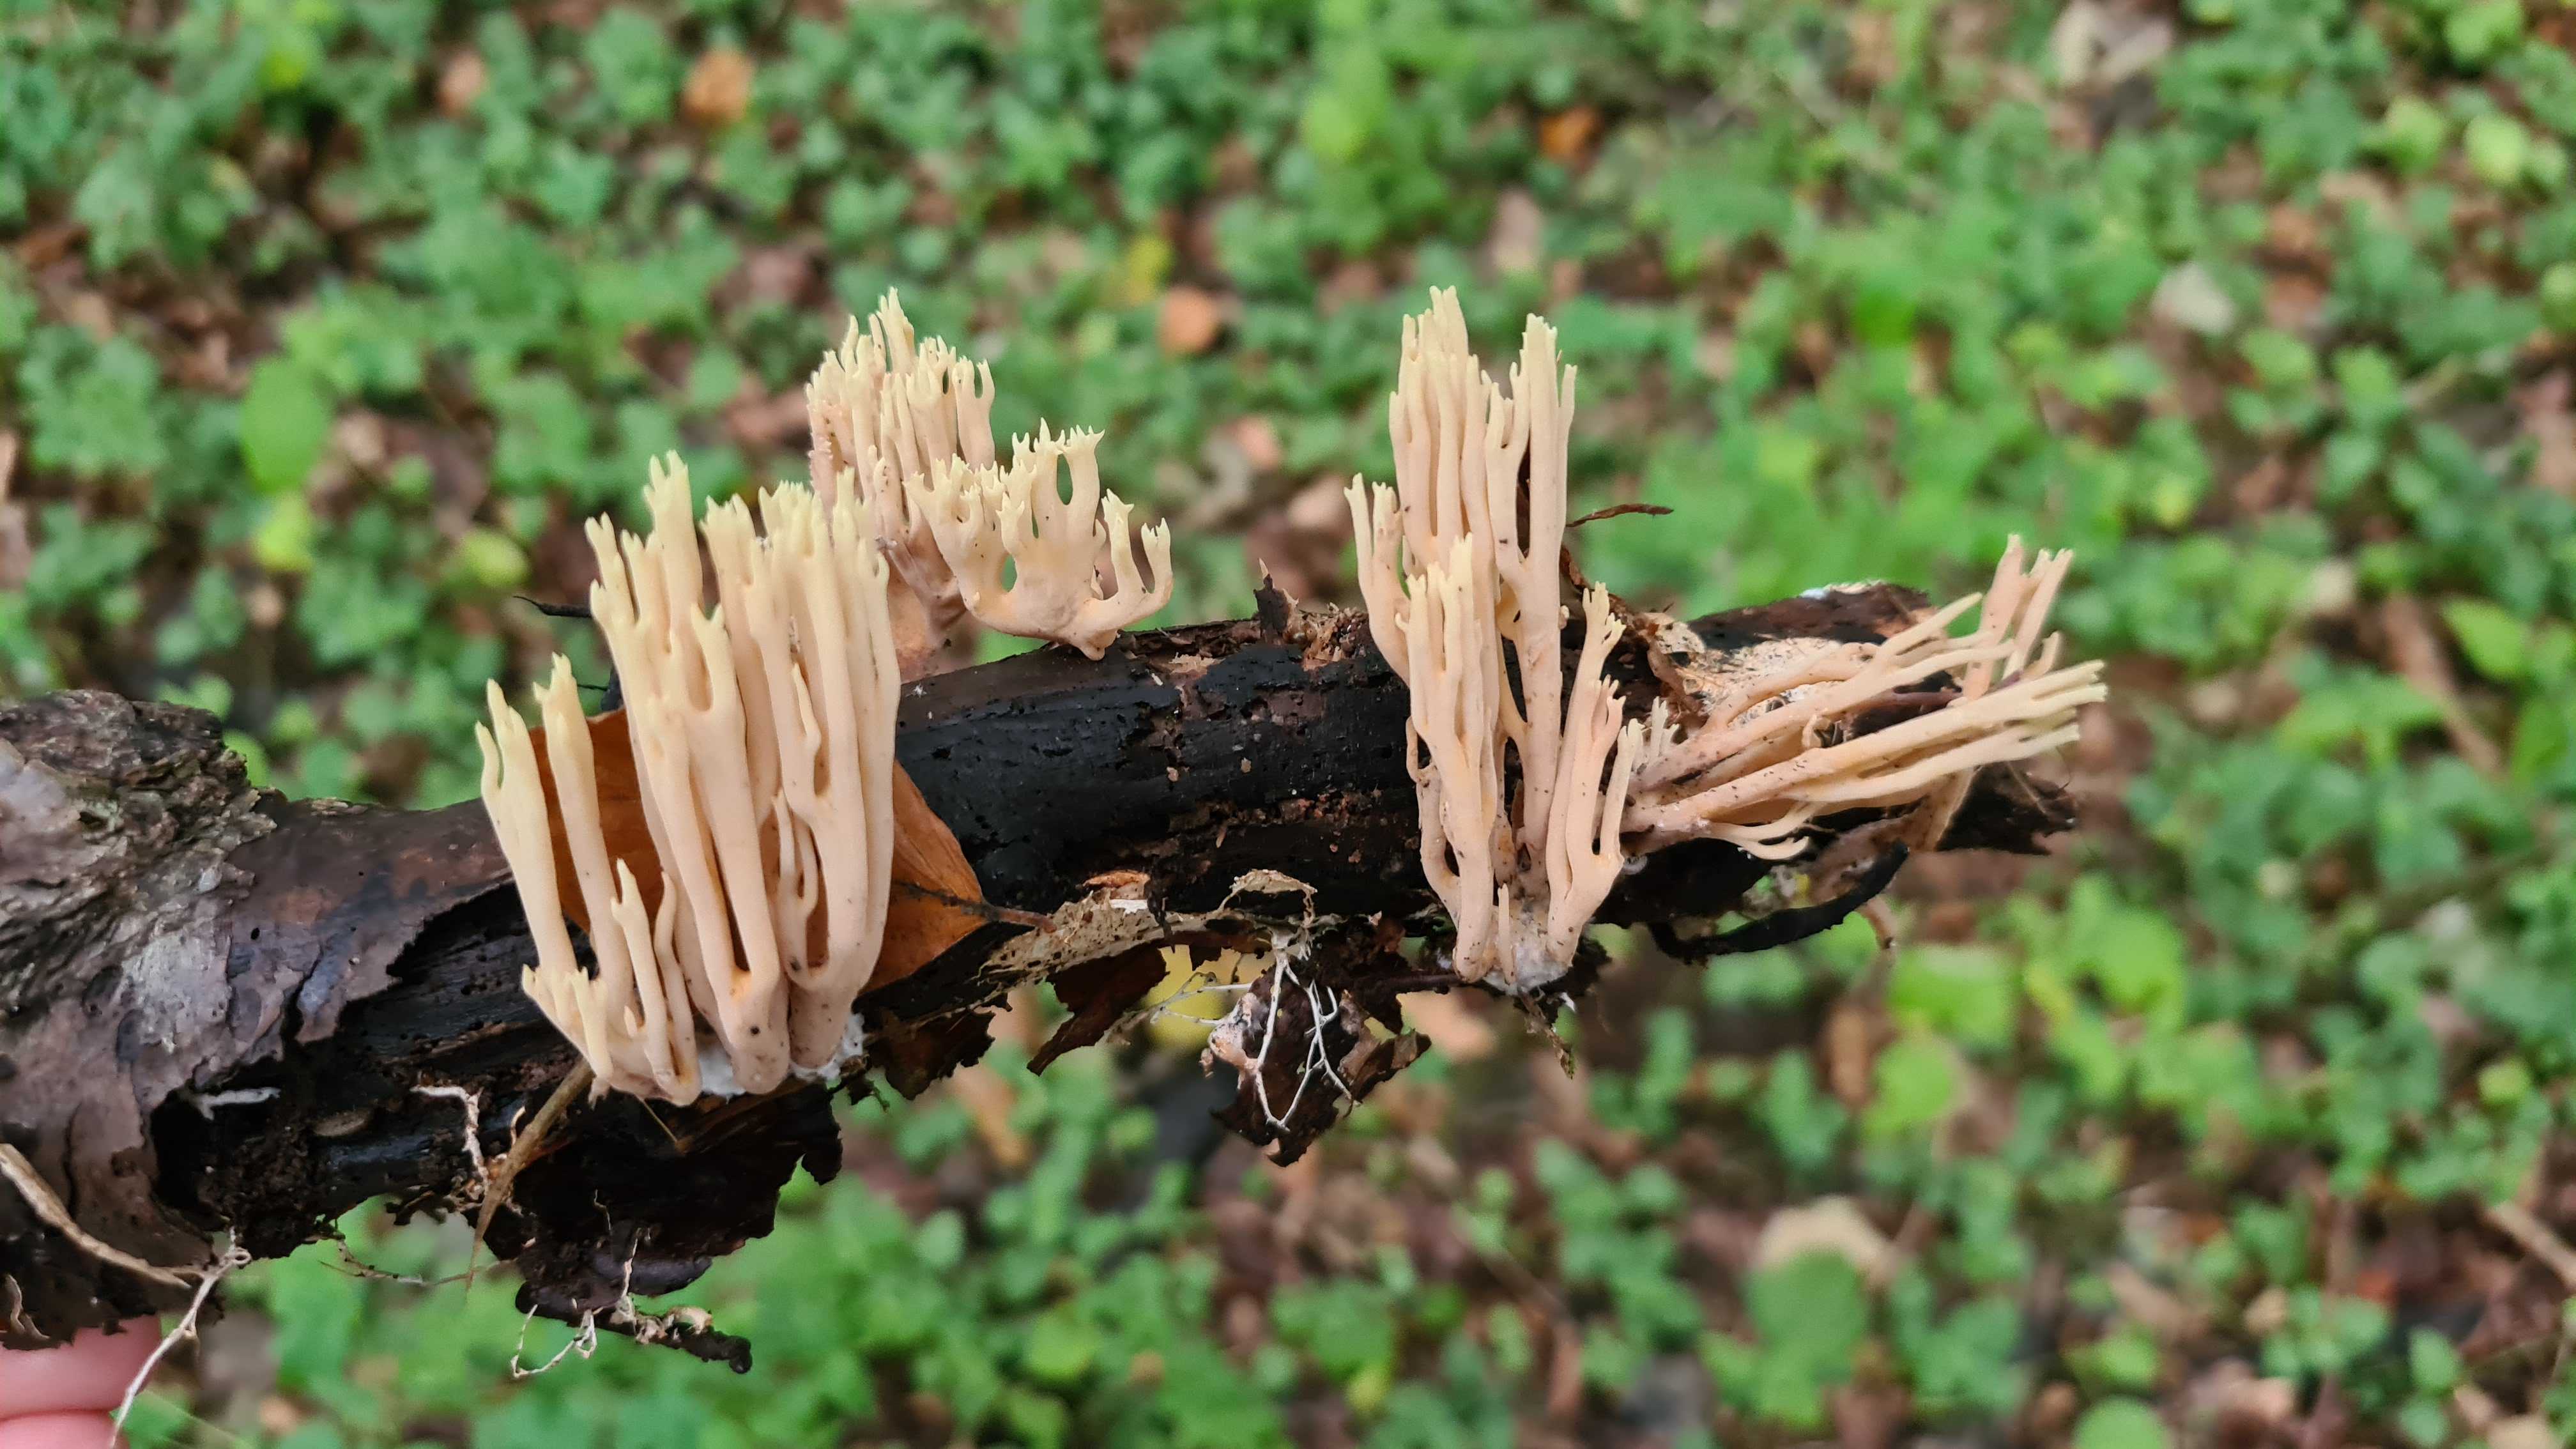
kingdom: Fungi
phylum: Basidiomycota
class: Agaricomycetes
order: Gomphales
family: Gomphaceae
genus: Ramaria
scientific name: Ramaria stricta
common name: rank koralsvamp
